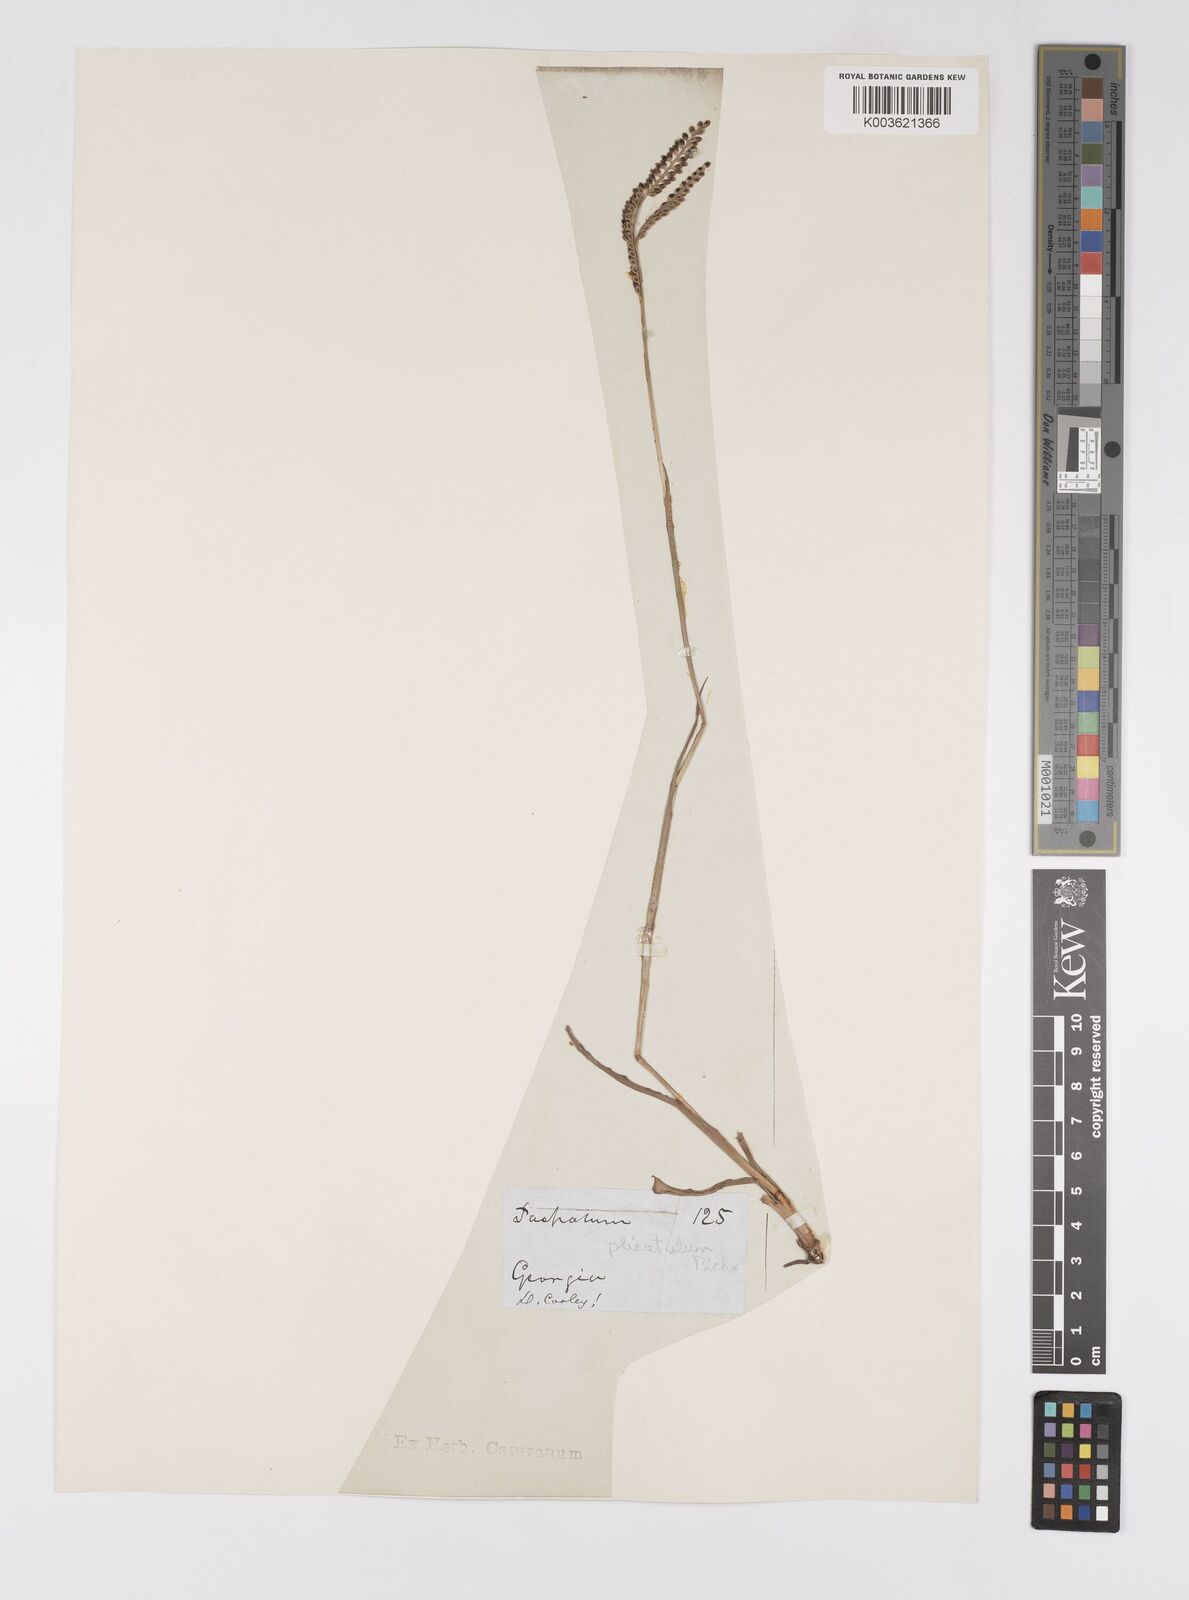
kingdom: Plantae
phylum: Tracheophyta
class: Liliopsida
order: Poales
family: Poaceae
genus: Paspalum
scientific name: Paspalum plicatulum
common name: Top paspalum
